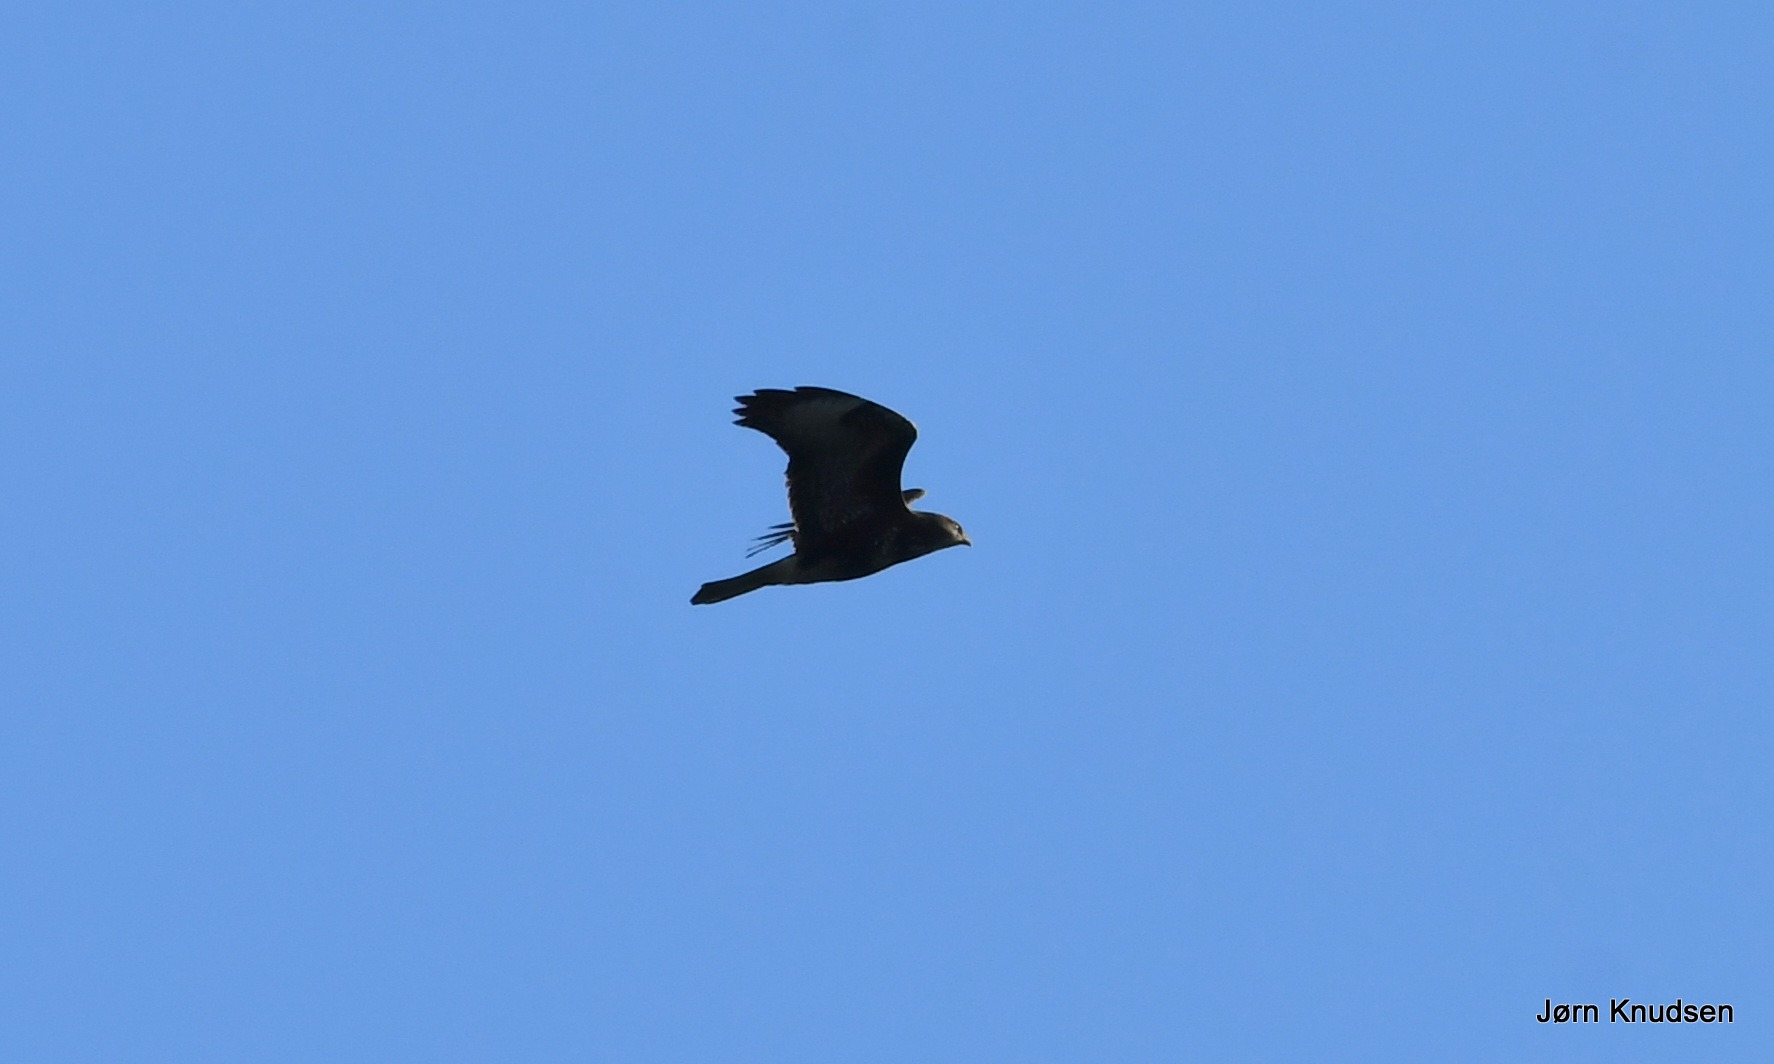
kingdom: Animalia
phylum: Chordata
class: Aves
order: Accipitriformes
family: Accipitridae
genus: Buteo
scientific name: Buteo buteo
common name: Musvåge
